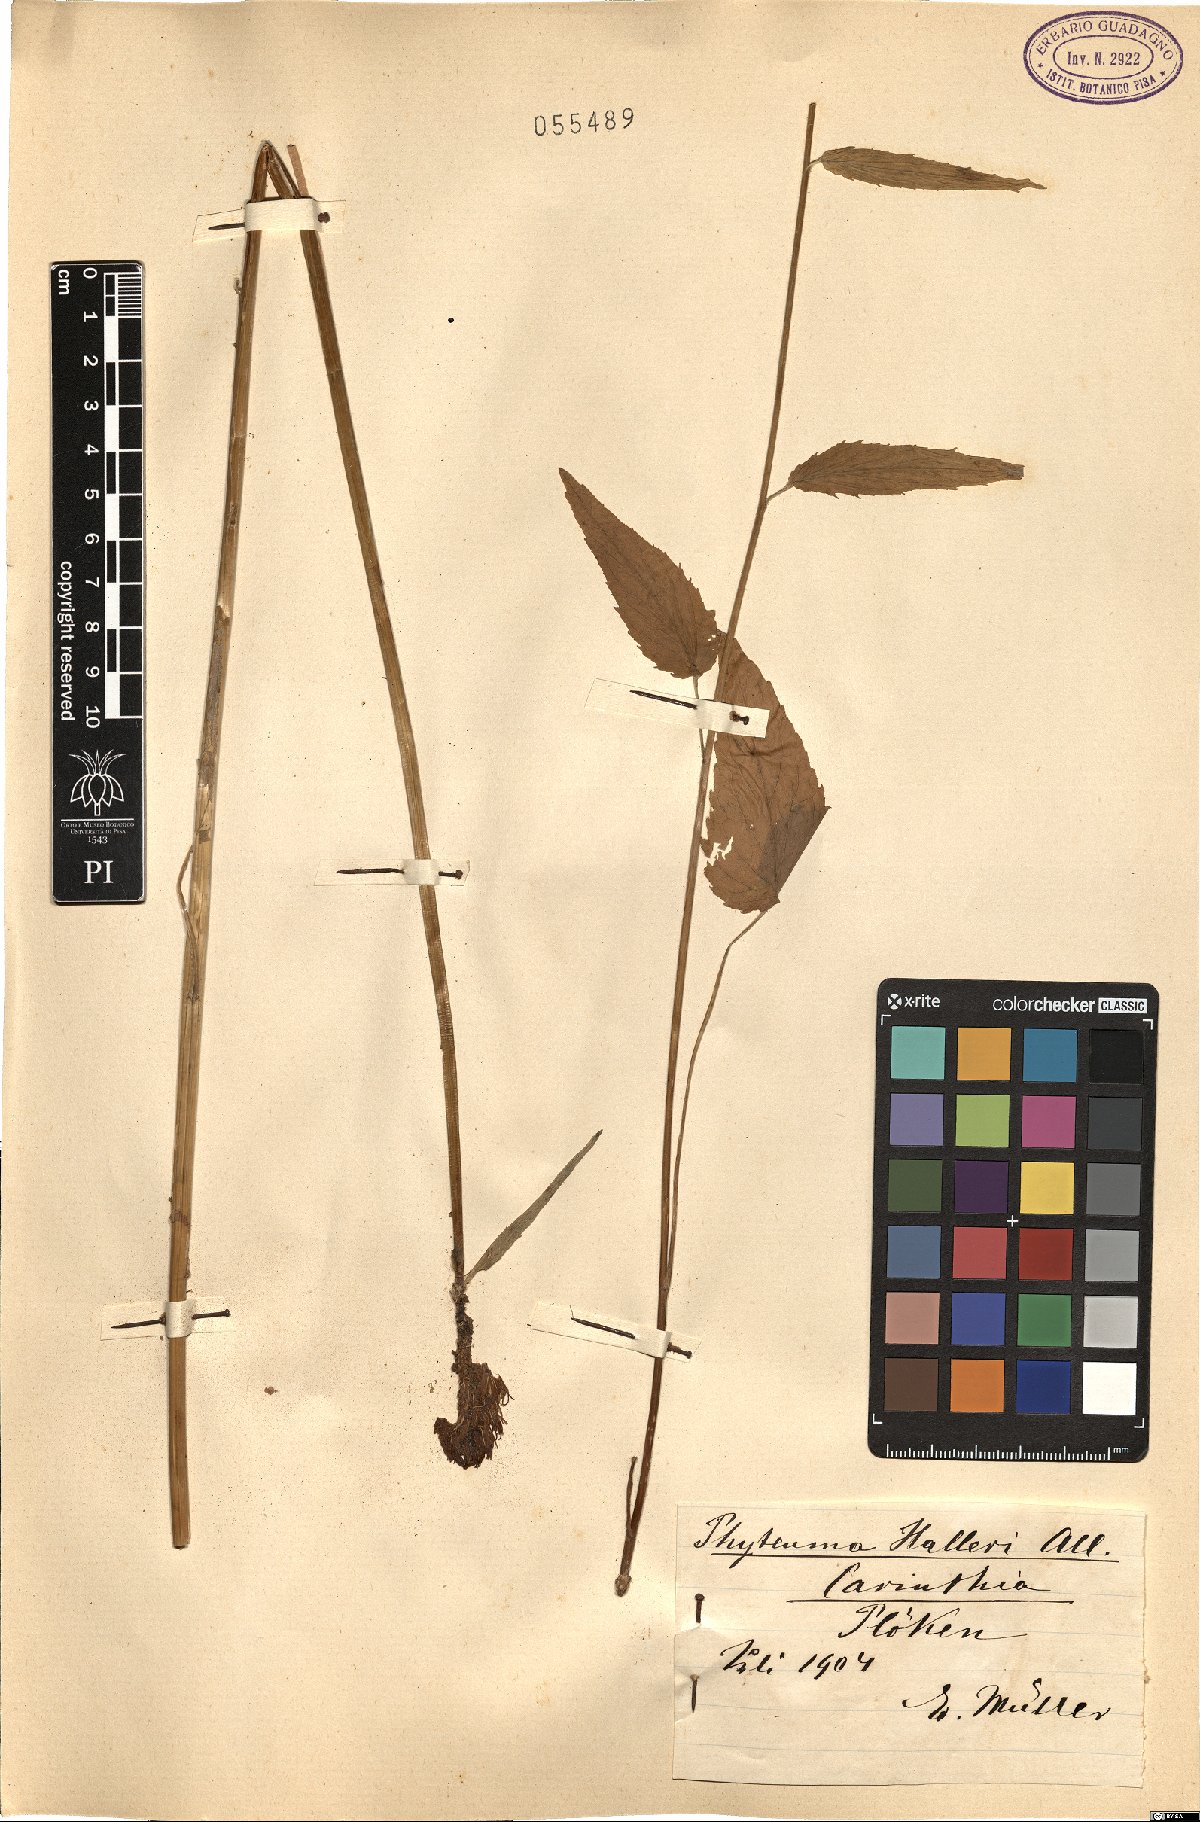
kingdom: Plantae
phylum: Tracheophyta
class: Magnoliopsida
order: Asterales
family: Campanulaceae
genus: Phyteuma
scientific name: Phyteuma ovatum
